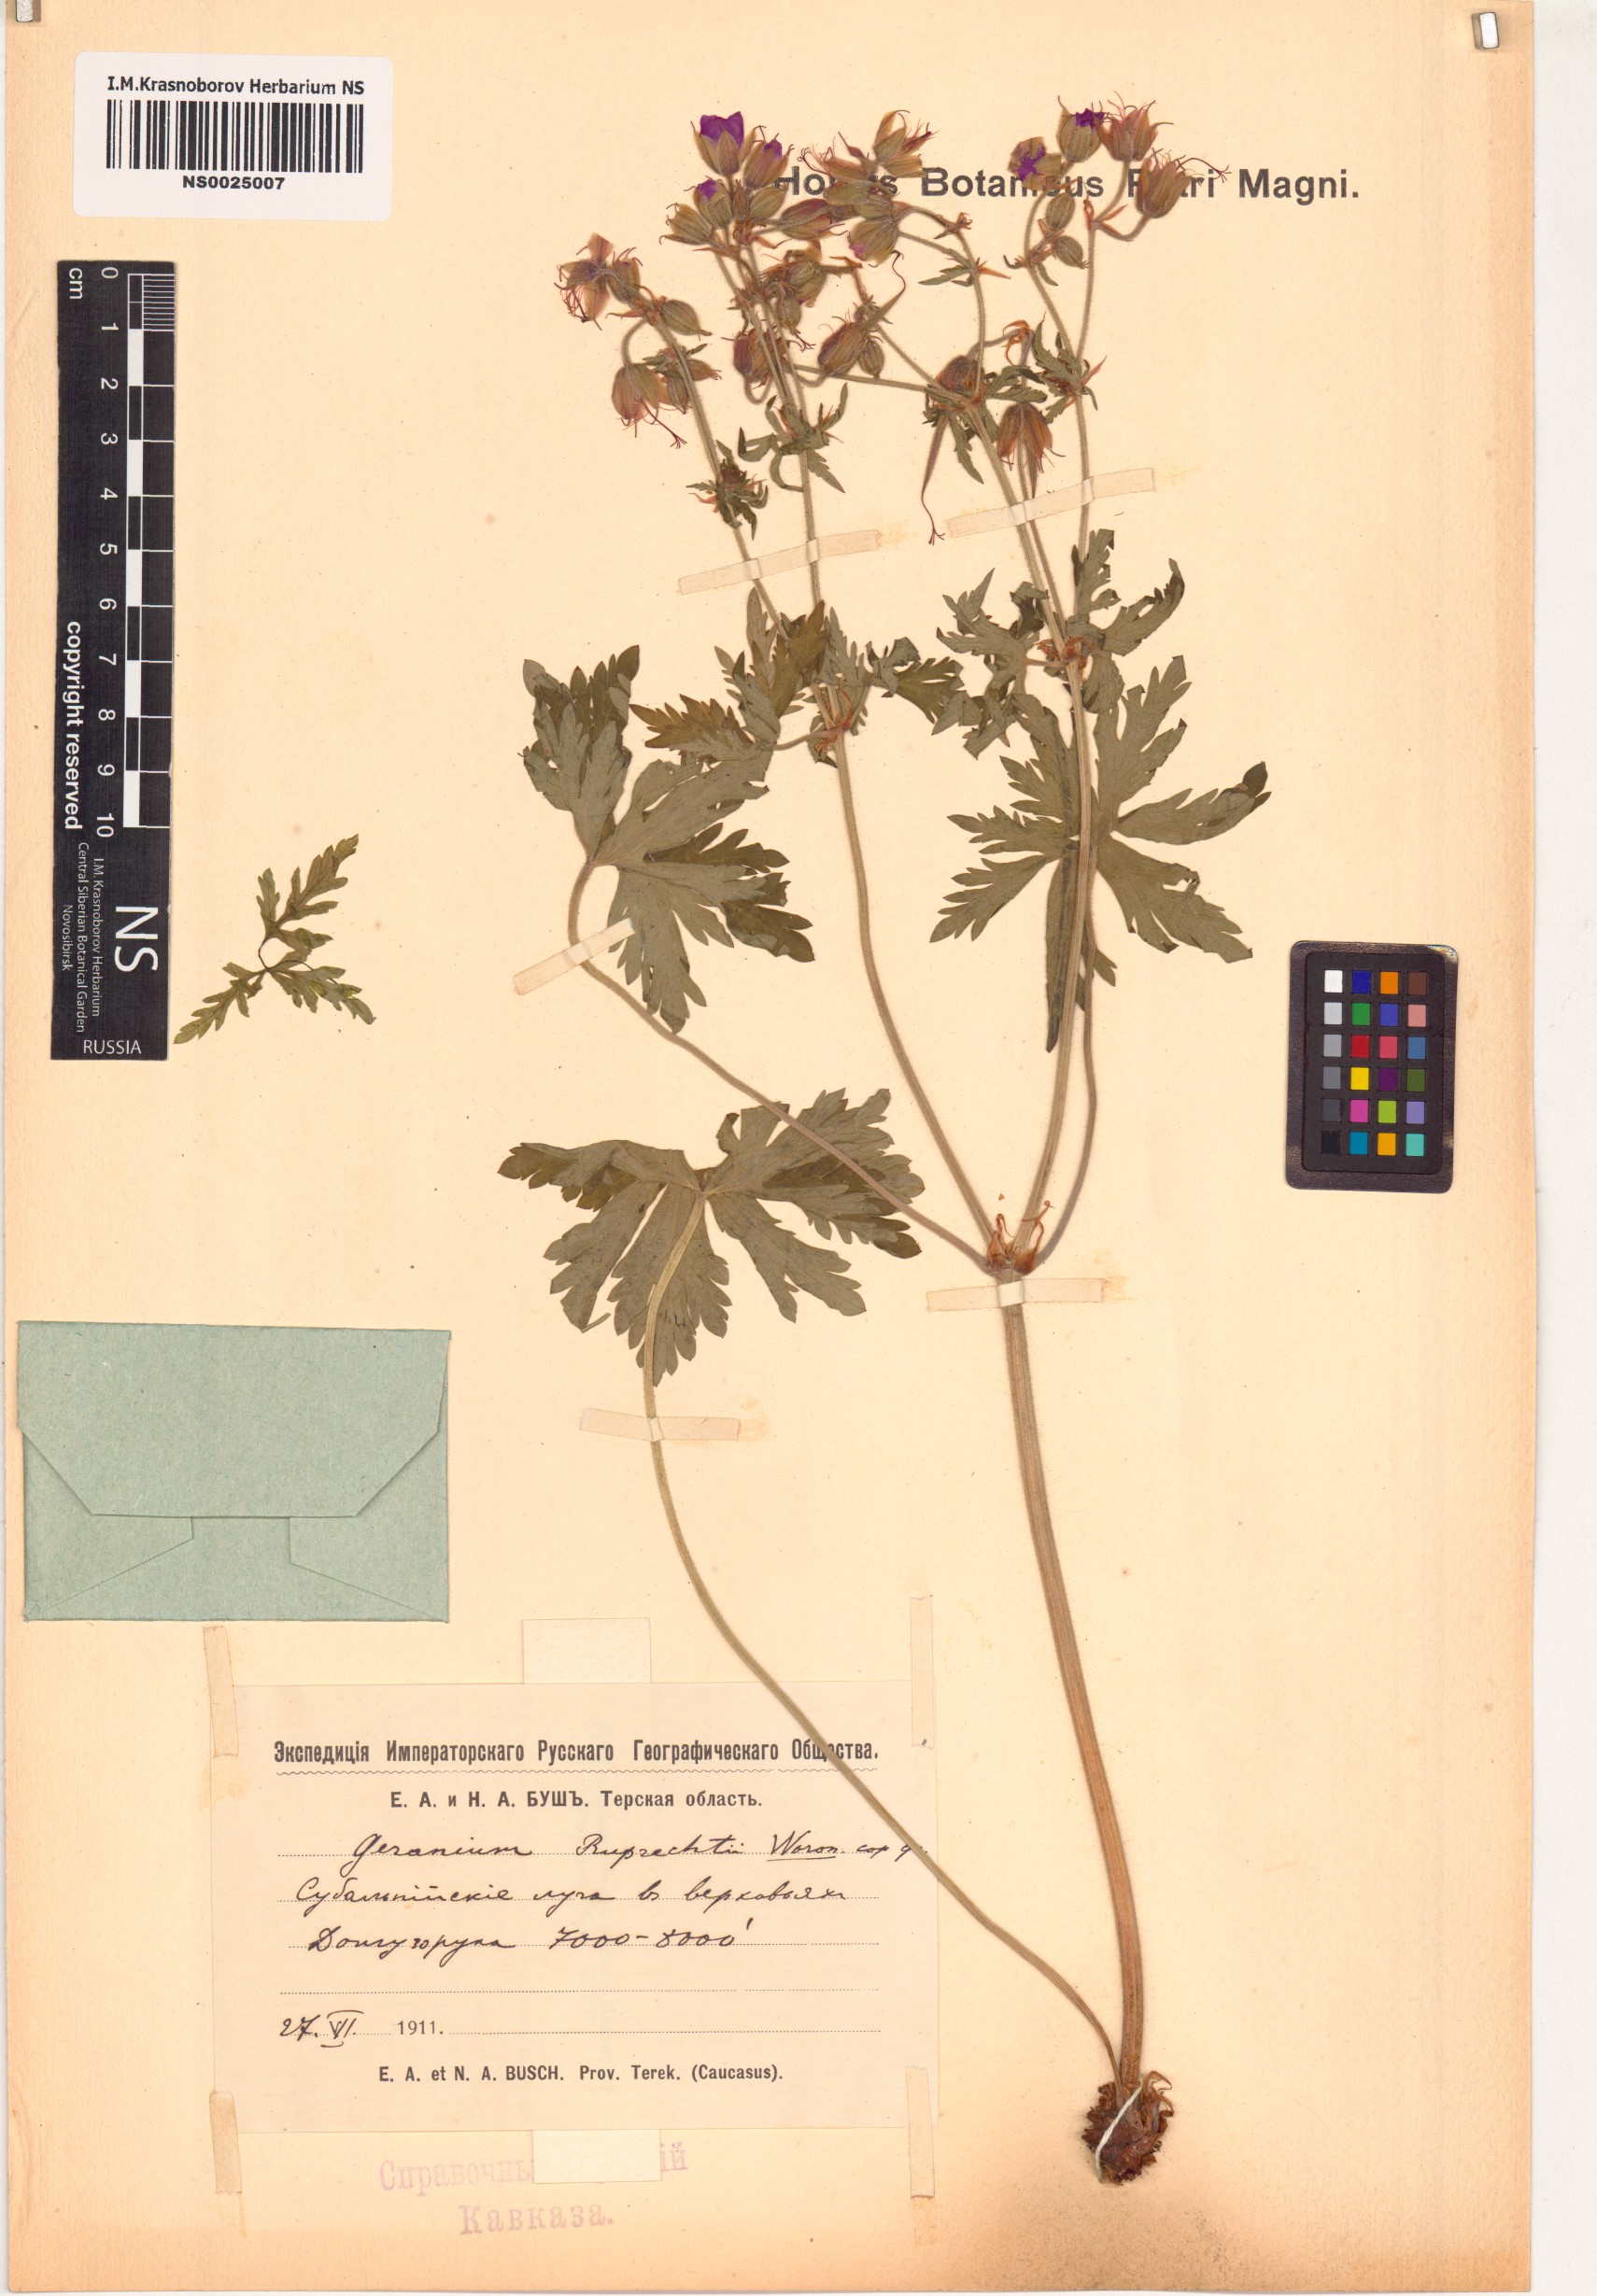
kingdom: Plantae
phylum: Tracheophyta
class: Magnoliopsida
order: Geraniales
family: Geraniaceae
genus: Geranium
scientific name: Geranium ruprechtii
